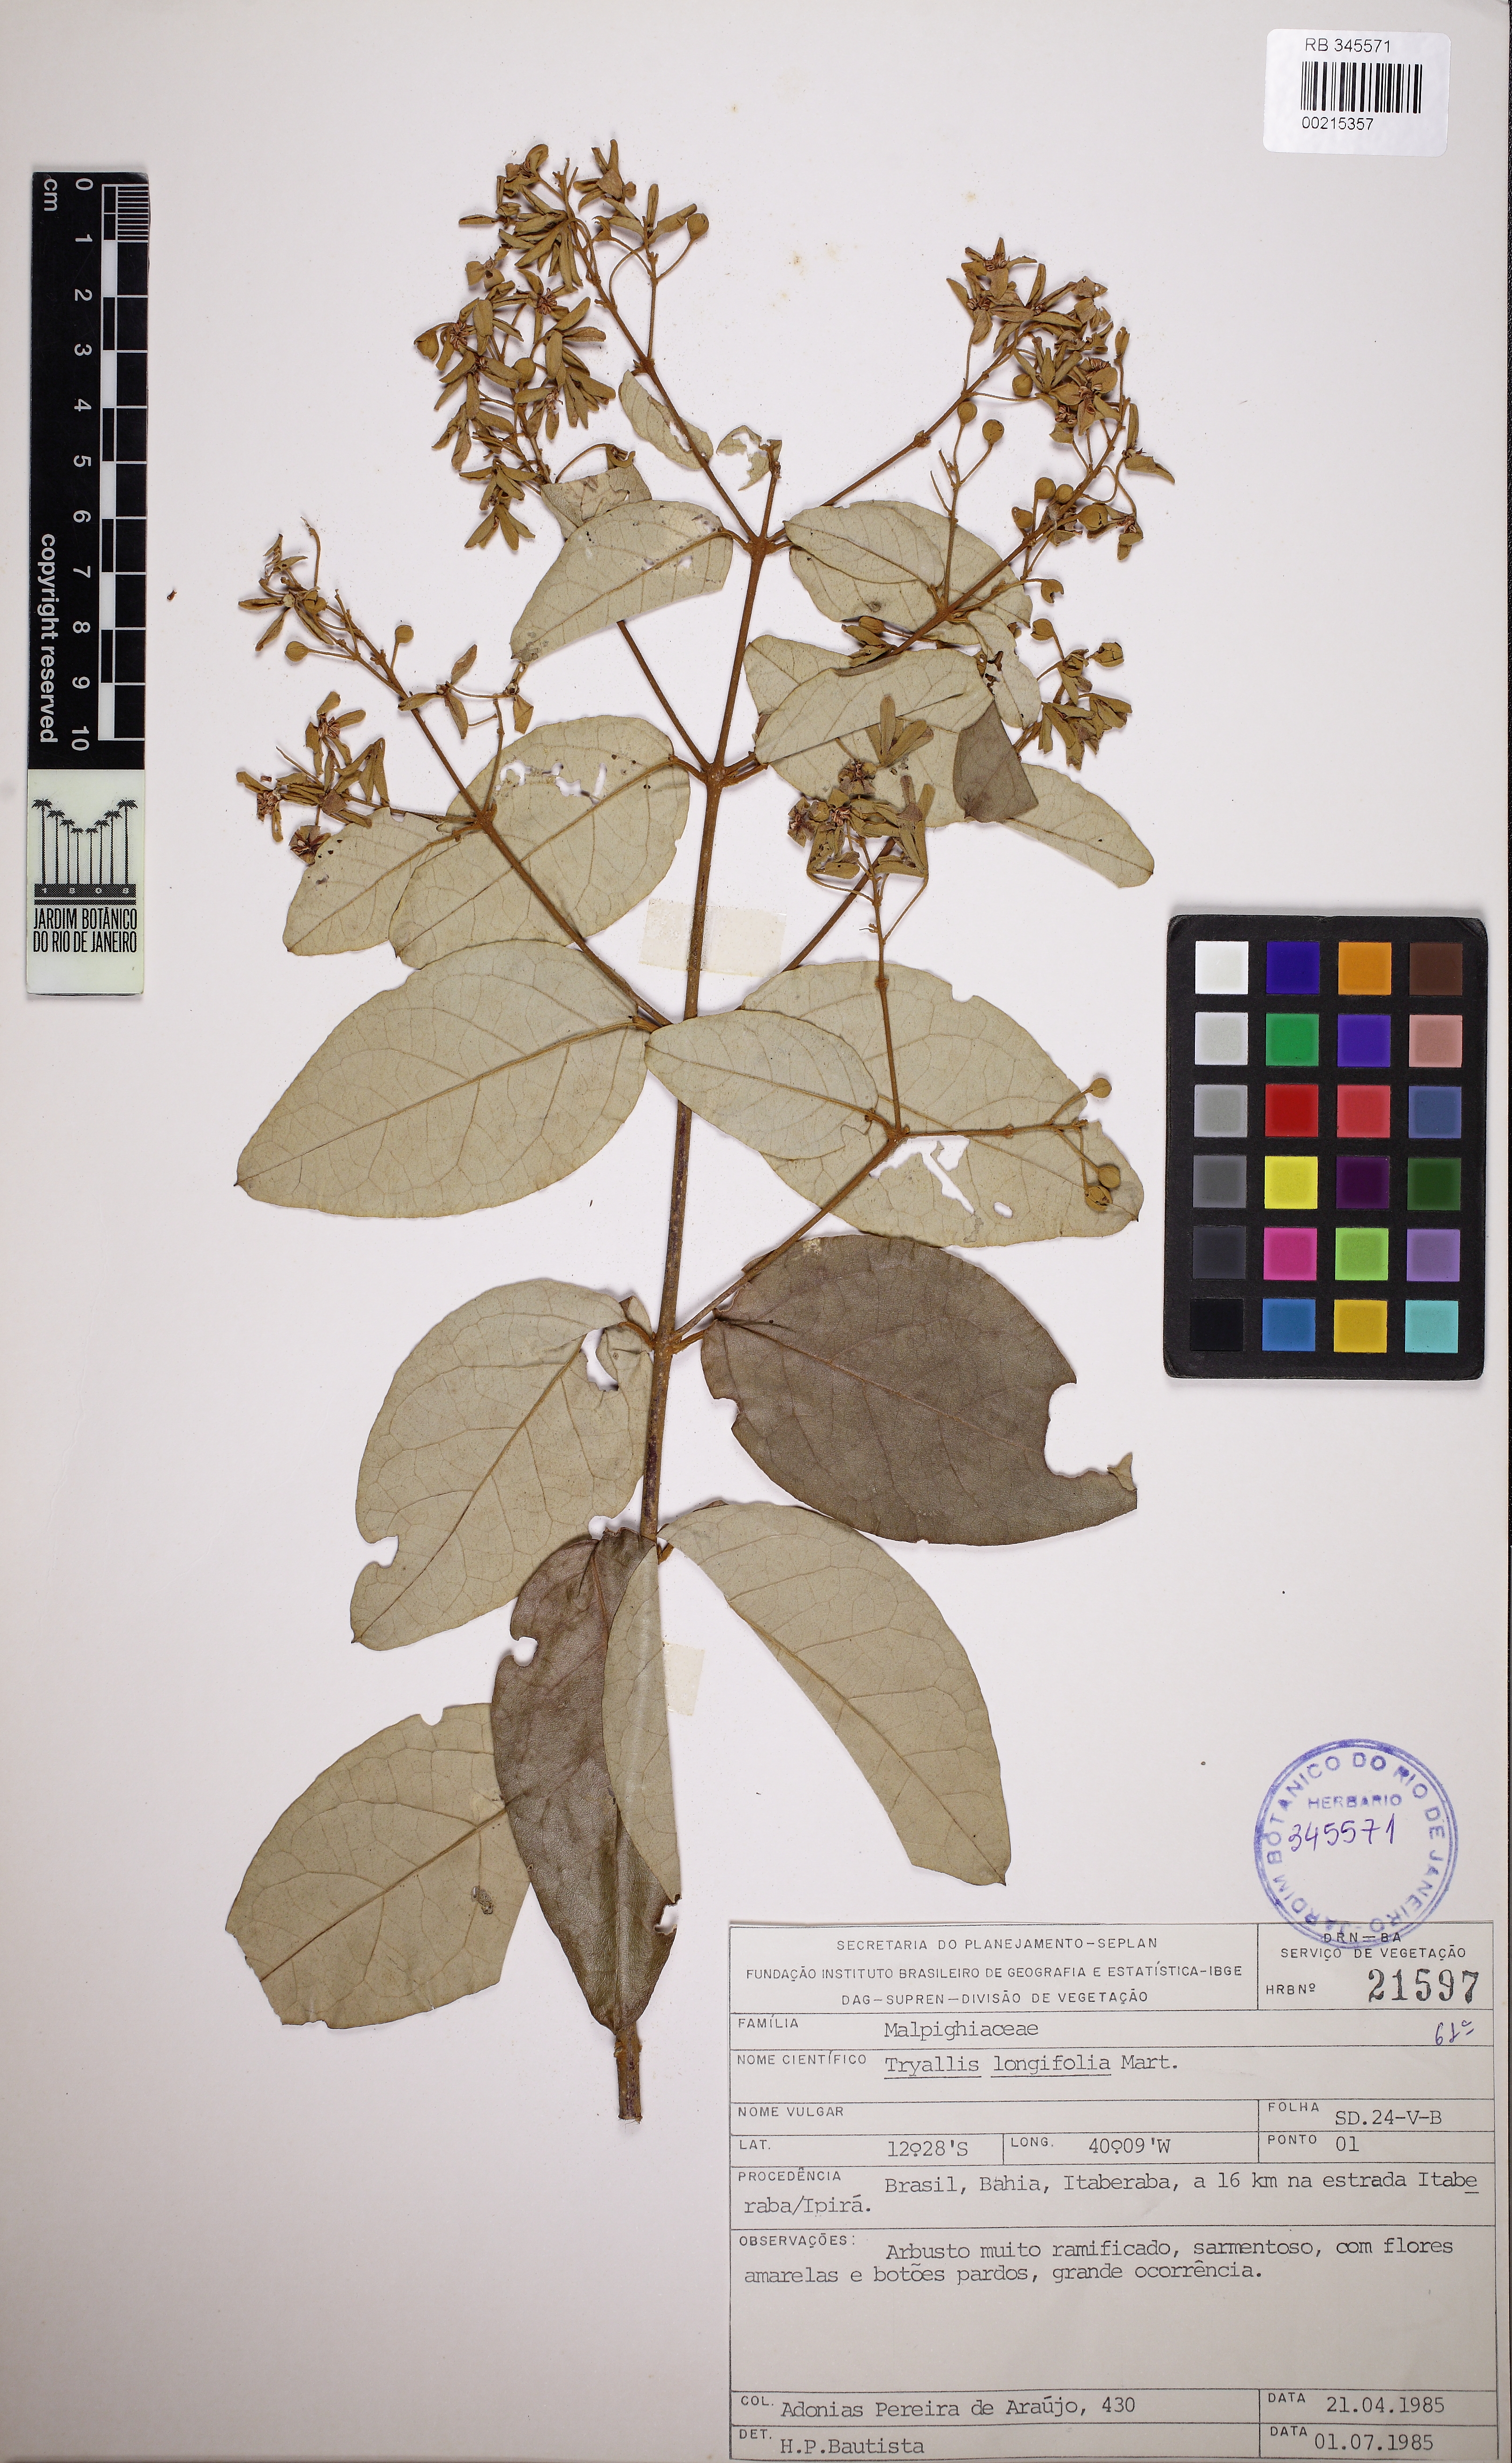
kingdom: Plantae
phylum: Tracheophyta
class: Magnoliopsida
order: Malpighiales
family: Malpighiaceae
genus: Thryallis
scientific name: Thryallis longifolia
